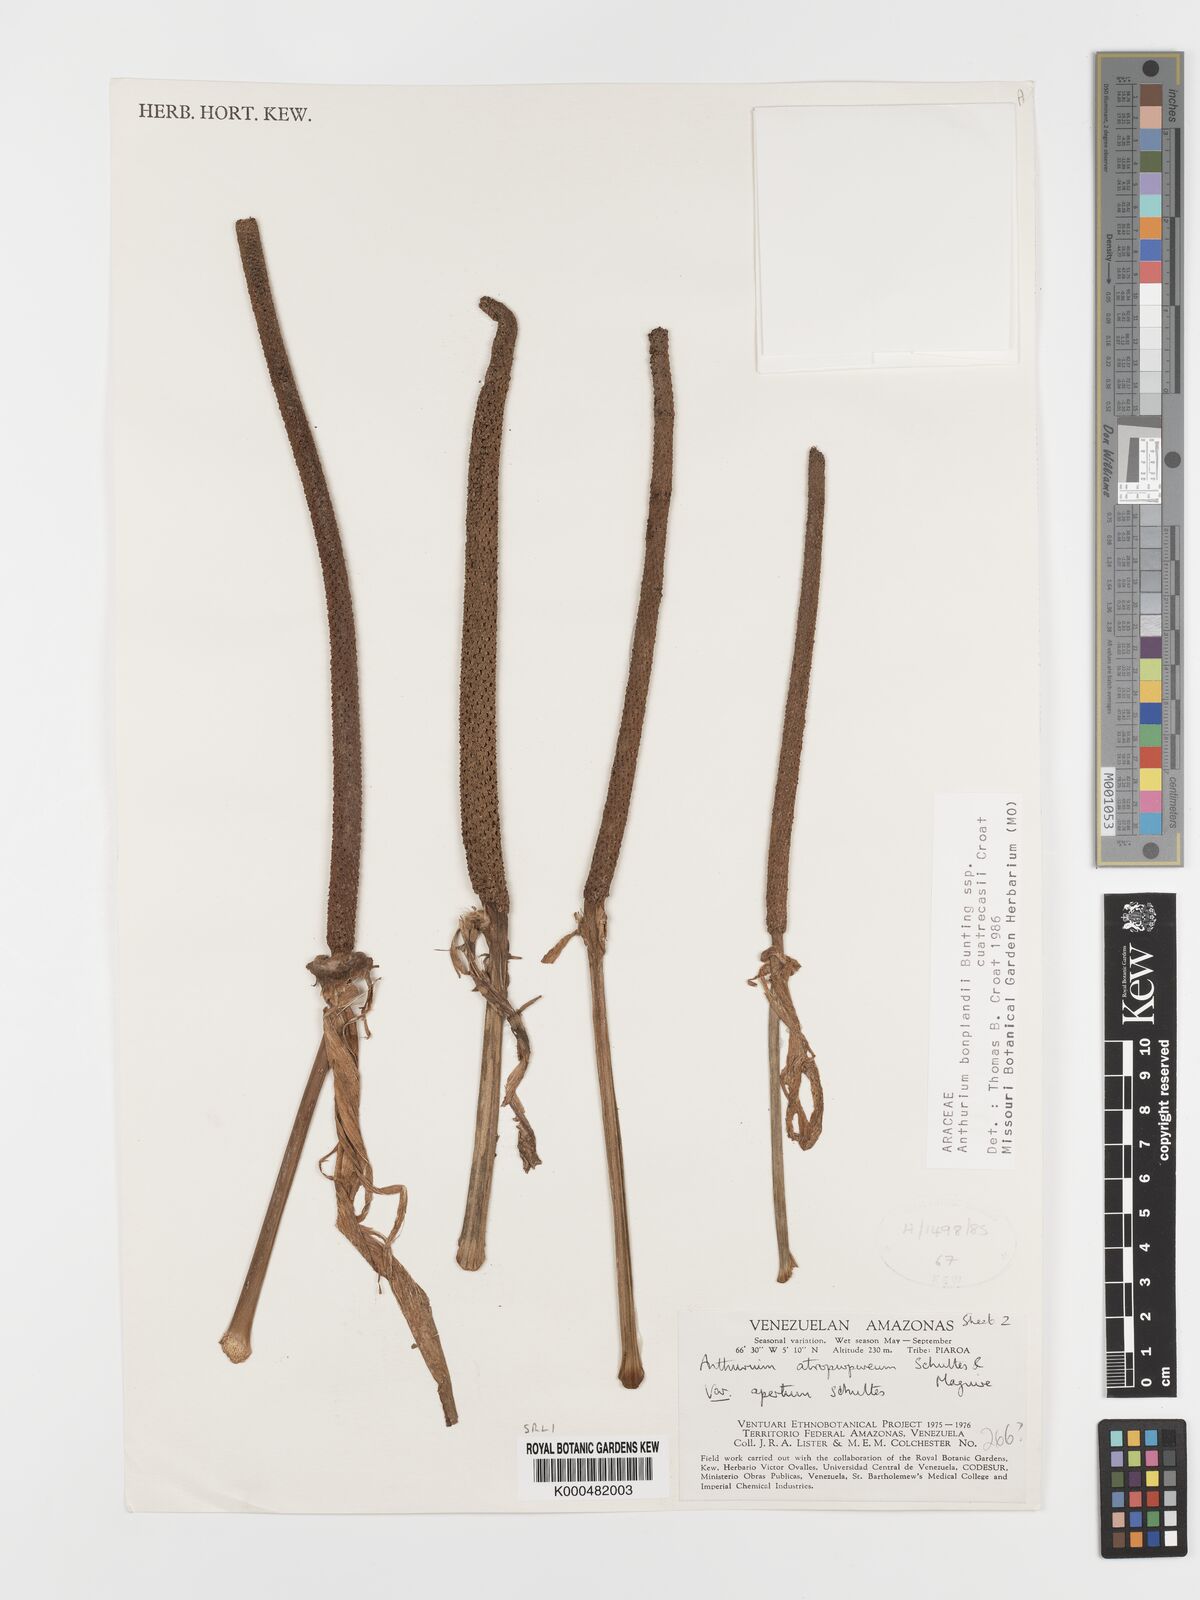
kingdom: Plantae
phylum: Tracheophyta
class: Liliopsida
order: Alismatales
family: Araceae
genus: Anthurium
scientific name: Anthurium
